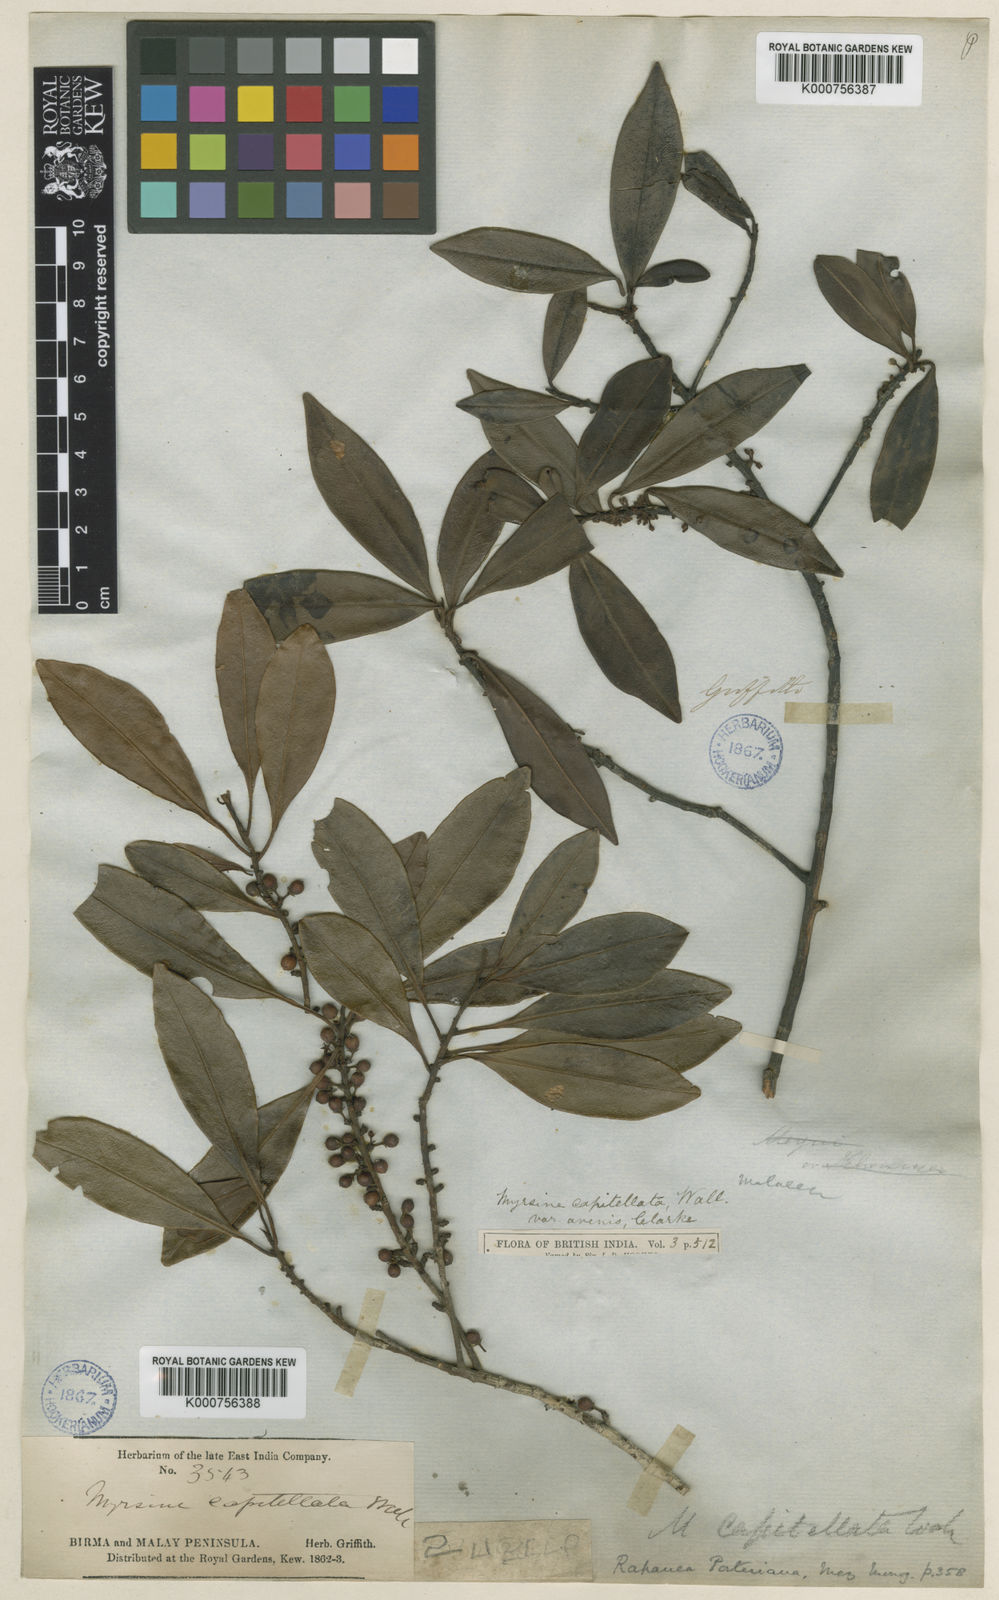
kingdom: Plantae
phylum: Tracheophyta
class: Magnoliopsida
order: Ericales
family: Primulaceae
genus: Myrsine
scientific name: Myrsine porteriana
